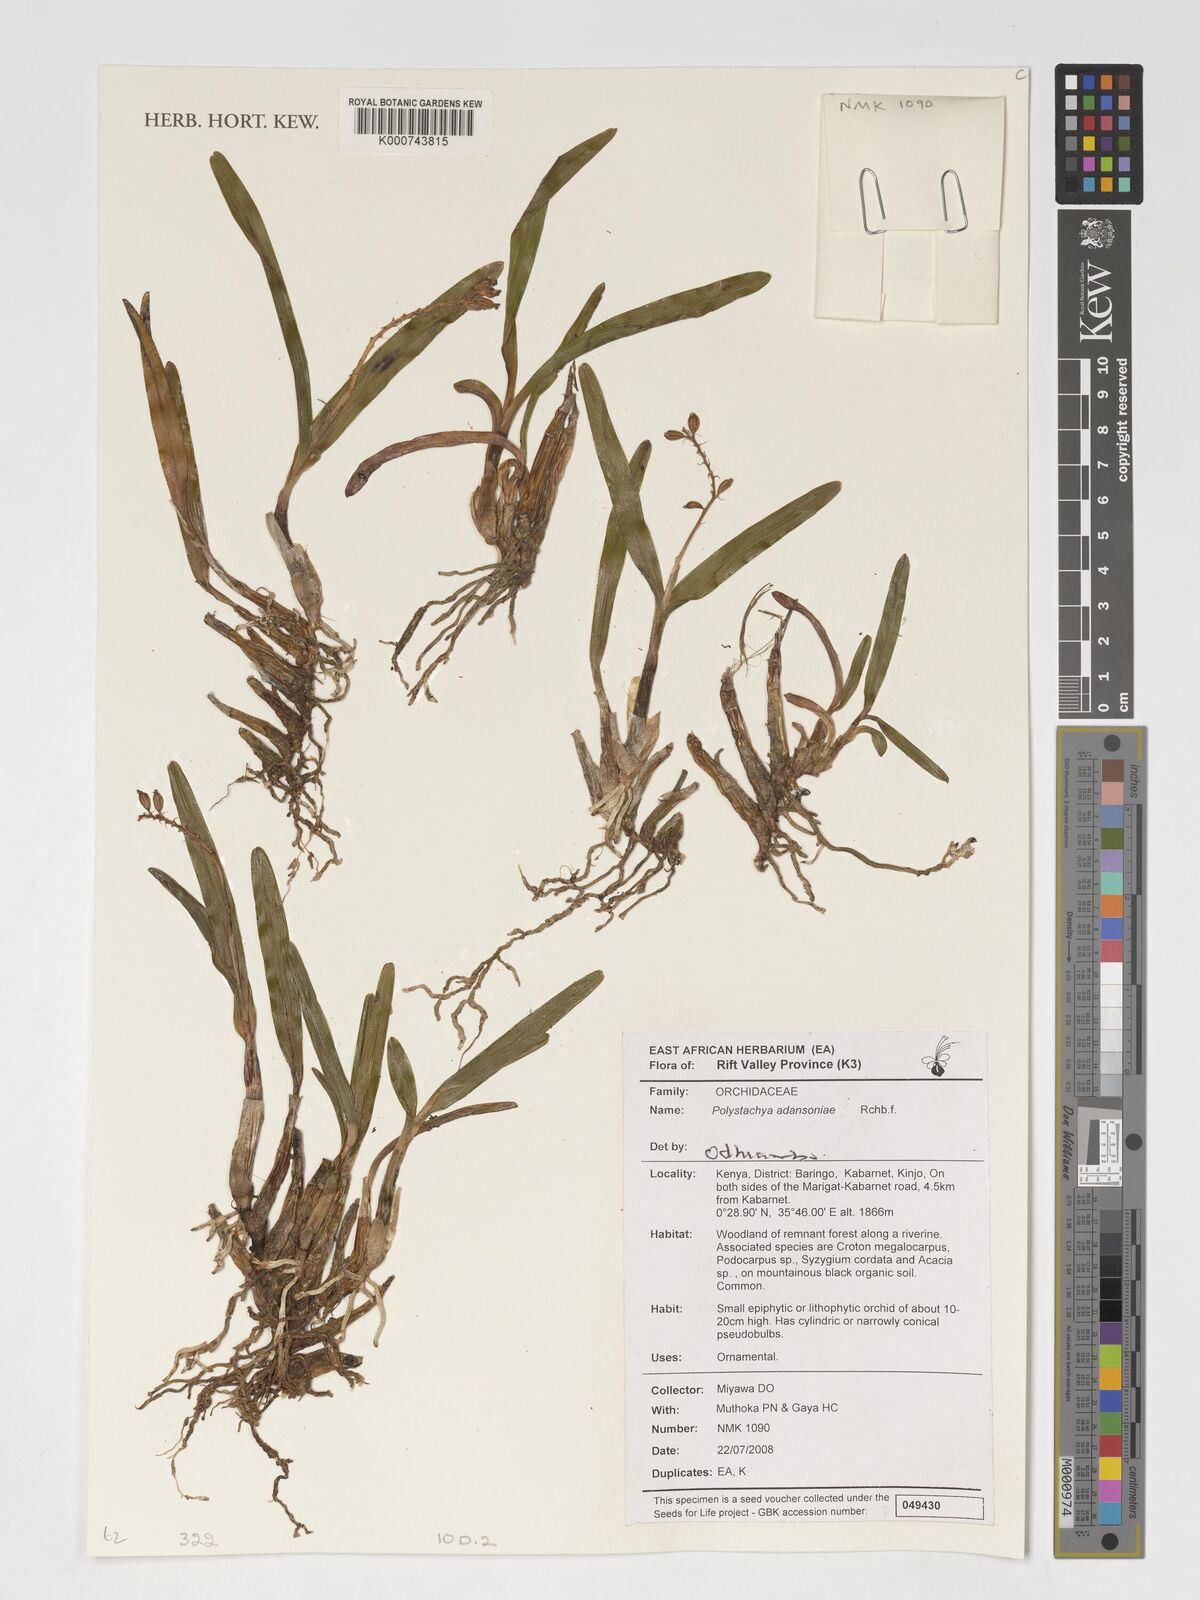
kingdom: Plantae
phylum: Tracheophyta
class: Liliopsida
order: Asparagales
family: Orchidaceae
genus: Polystachya
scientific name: Polystachya adansoniae
